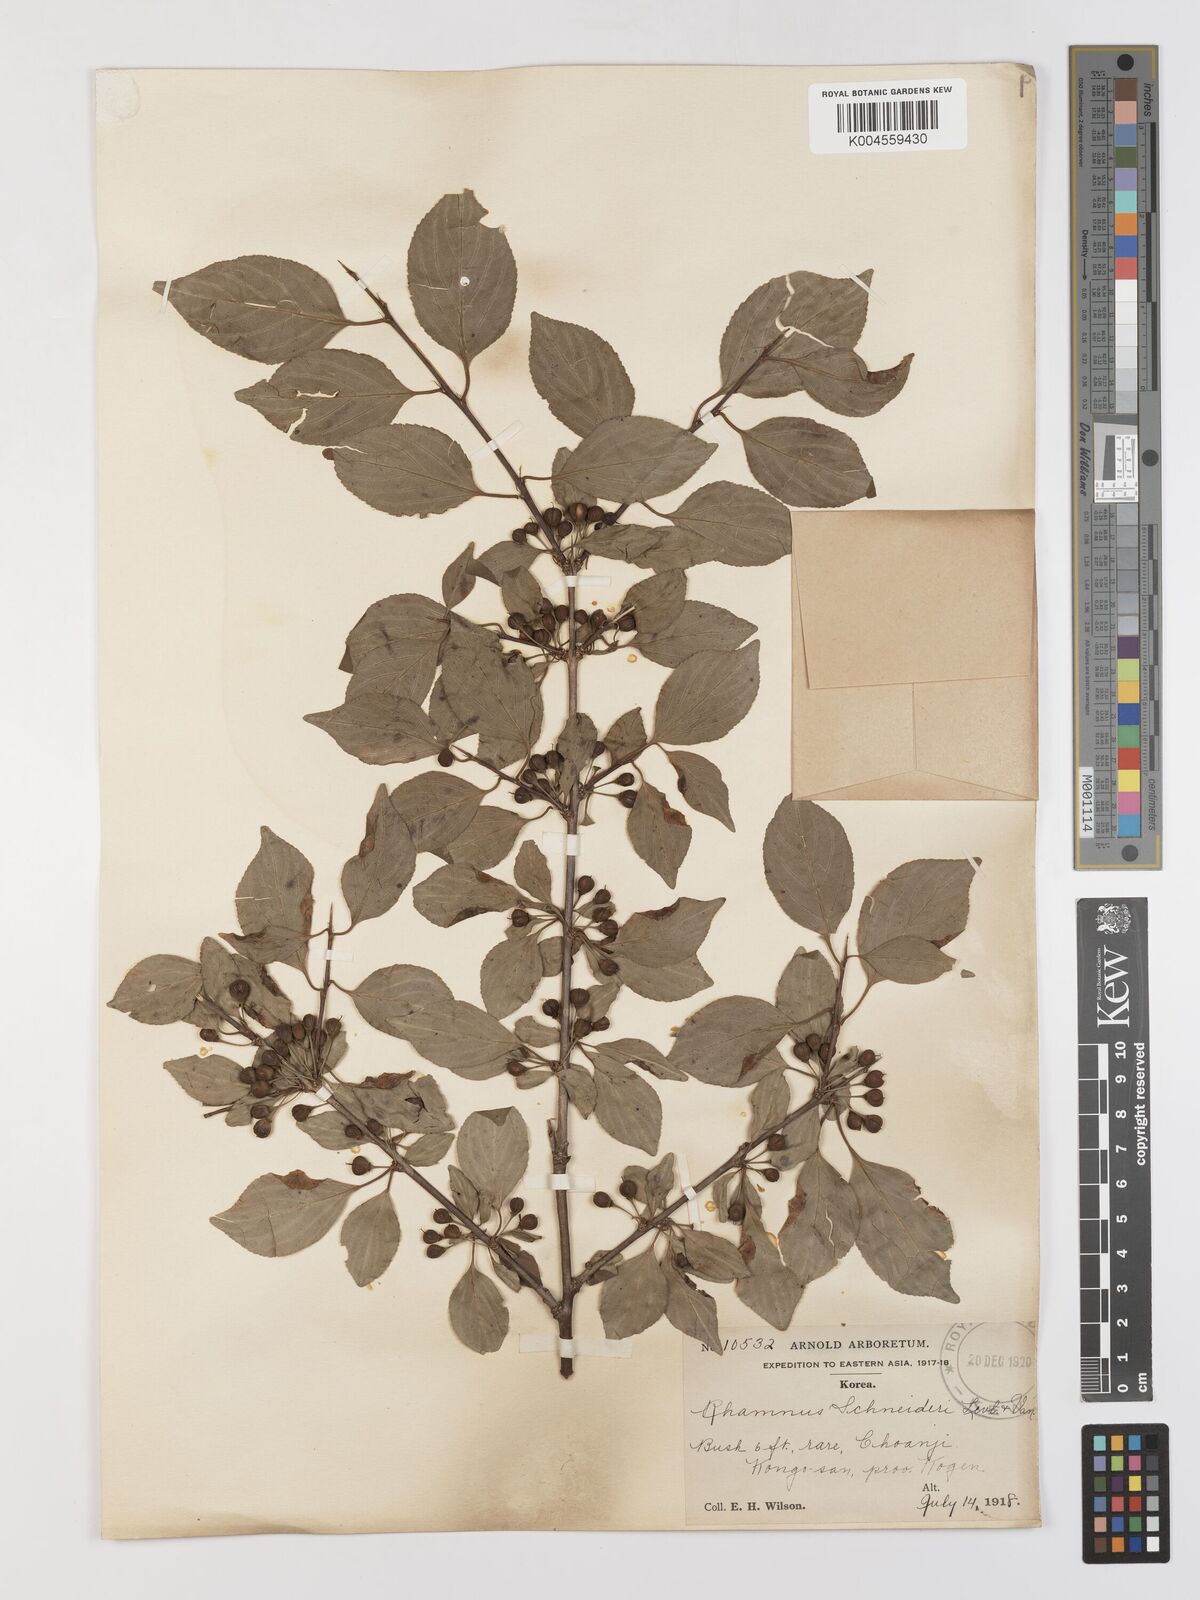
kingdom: Plantae
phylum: Tracheophyta
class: Magnoliopsida
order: Rosales
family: Rhamnaceae
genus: Rhamnus
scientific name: Rhamnus schneideri
